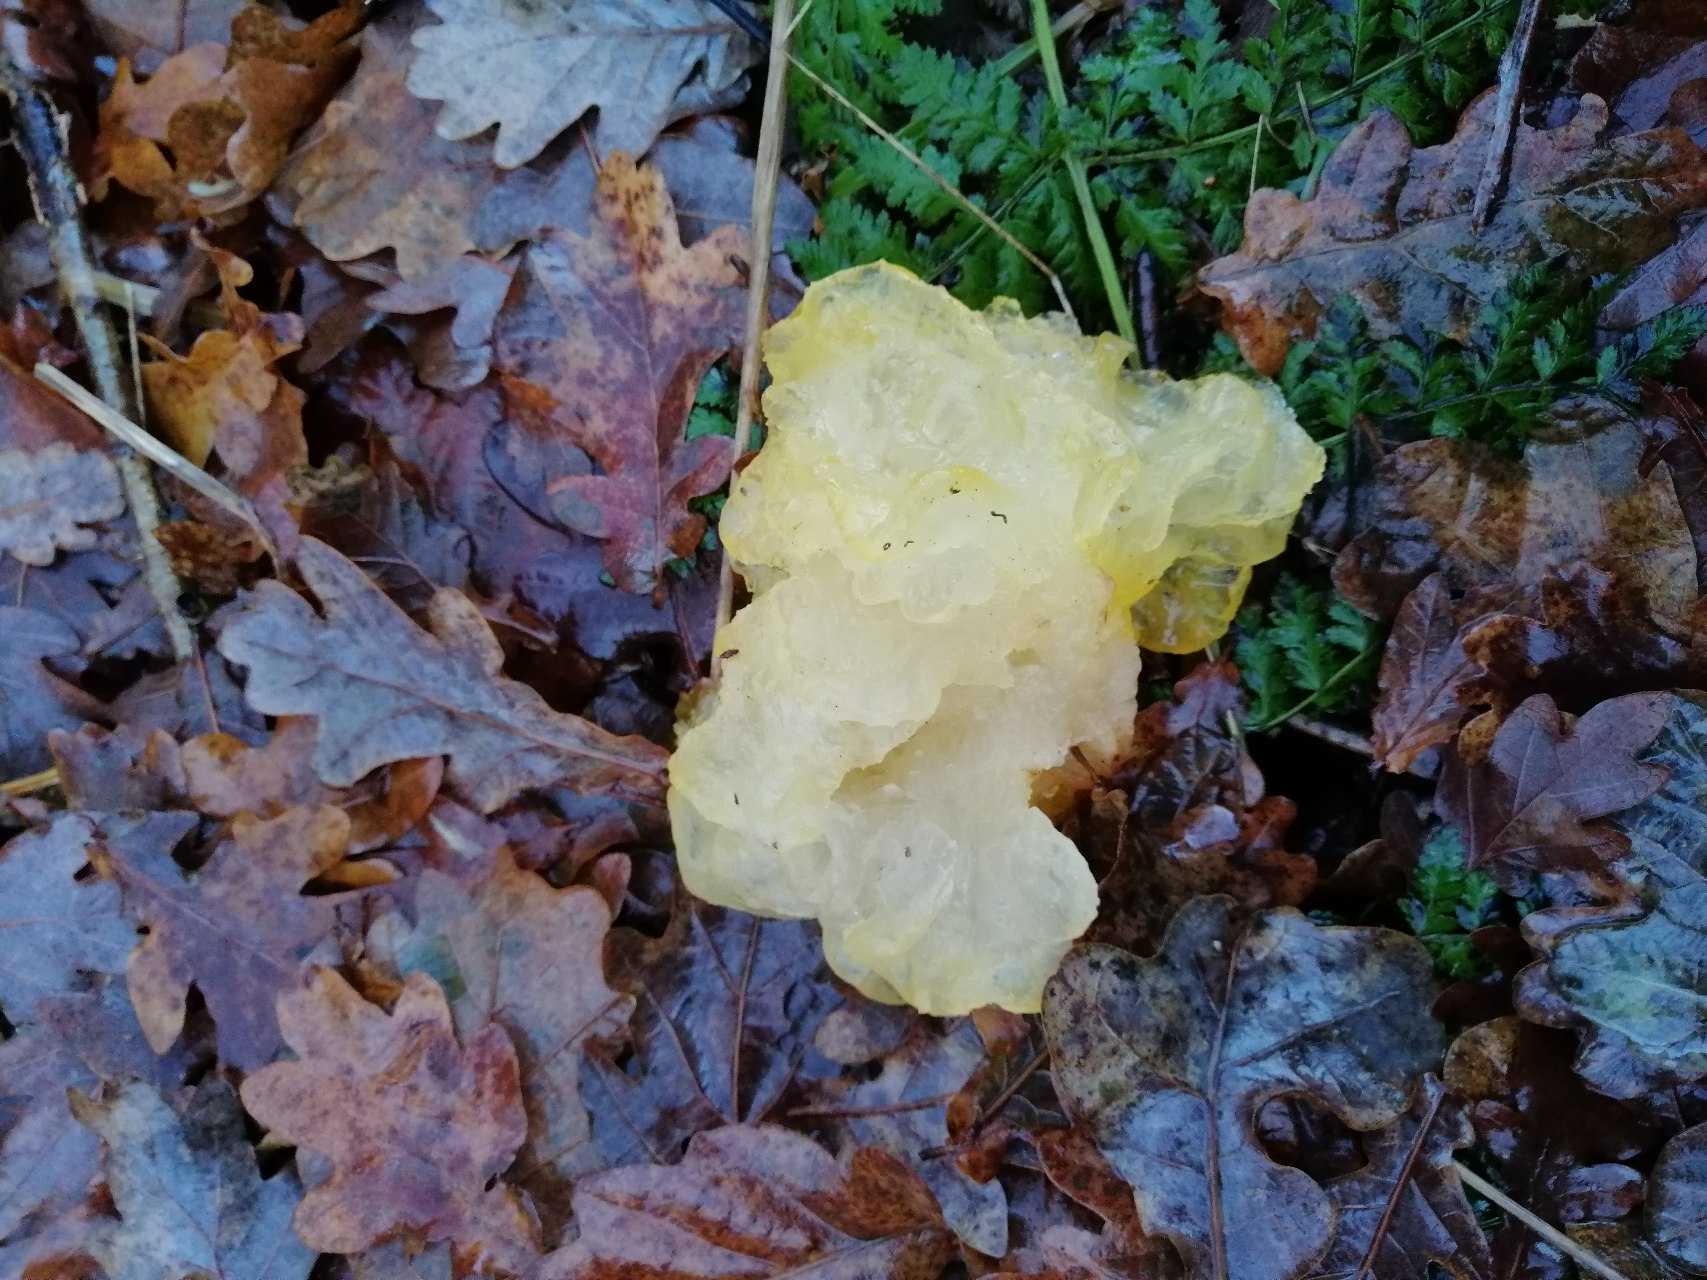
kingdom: Fungi
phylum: Basidiomycota
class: Tremellomycetes
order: Tremellales
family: Tremellaceae
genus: Tremella
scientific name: Tremella mesenterica
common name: Gul bævresvamp
